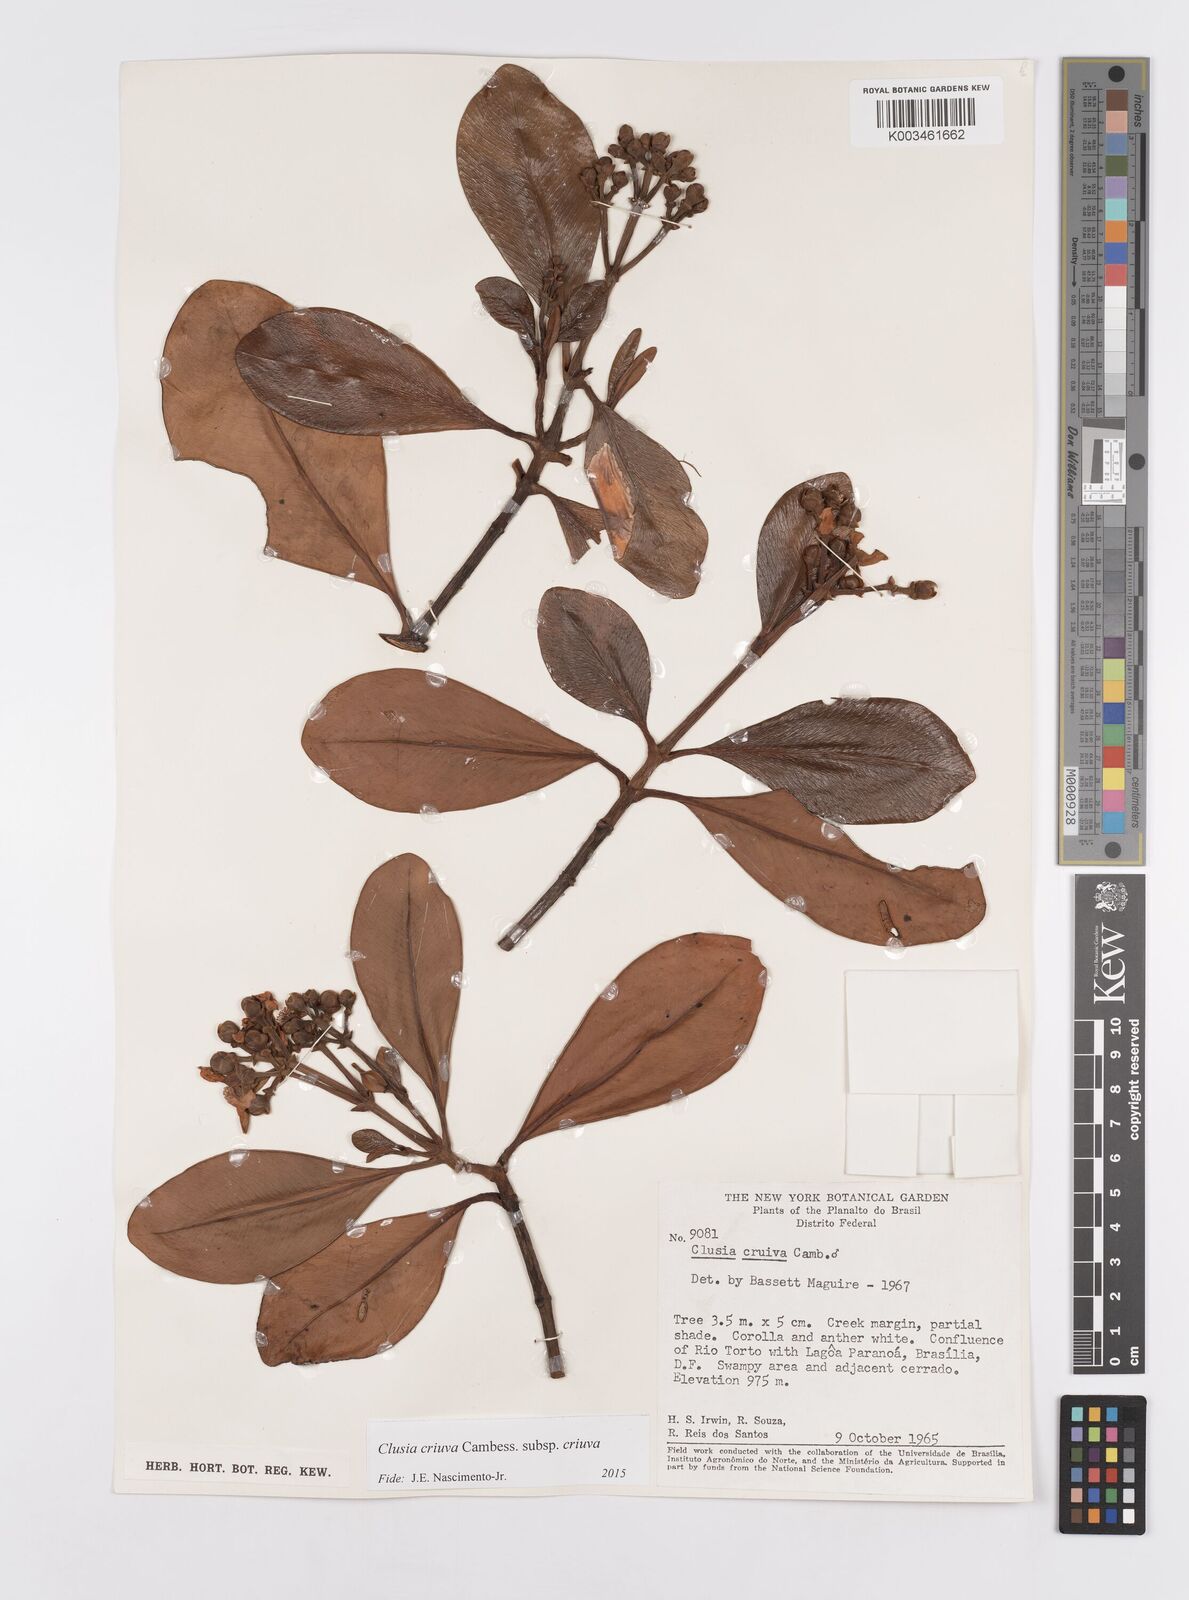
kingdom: Plantae
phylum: Tracheophyta
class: Magnoliopsida
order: Malpighiales
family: Clusiaceae
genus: Clusia
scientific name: Clusia criuva
